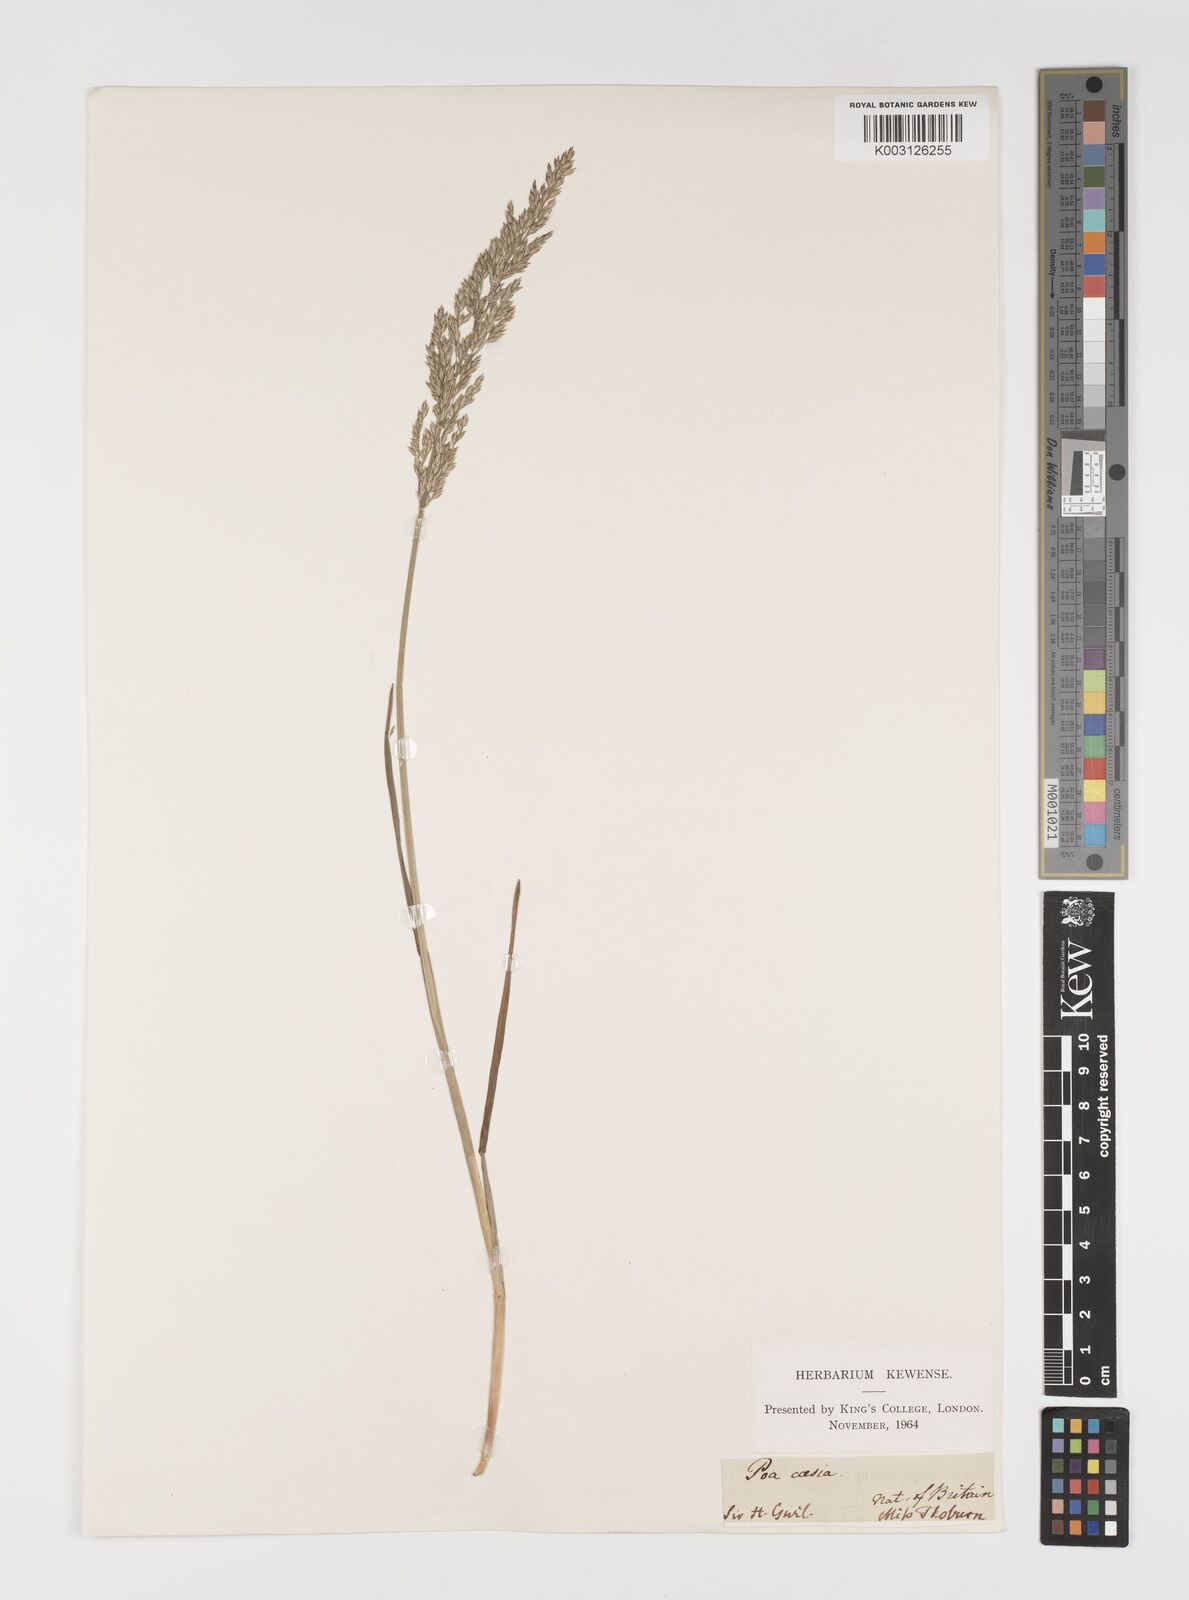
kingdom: Plantae
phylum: Tracheophyta
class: Liliopsida
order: Poales
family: Poaceae
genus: Poa
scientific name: Poa glauca
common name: Glaucous bluegrass
